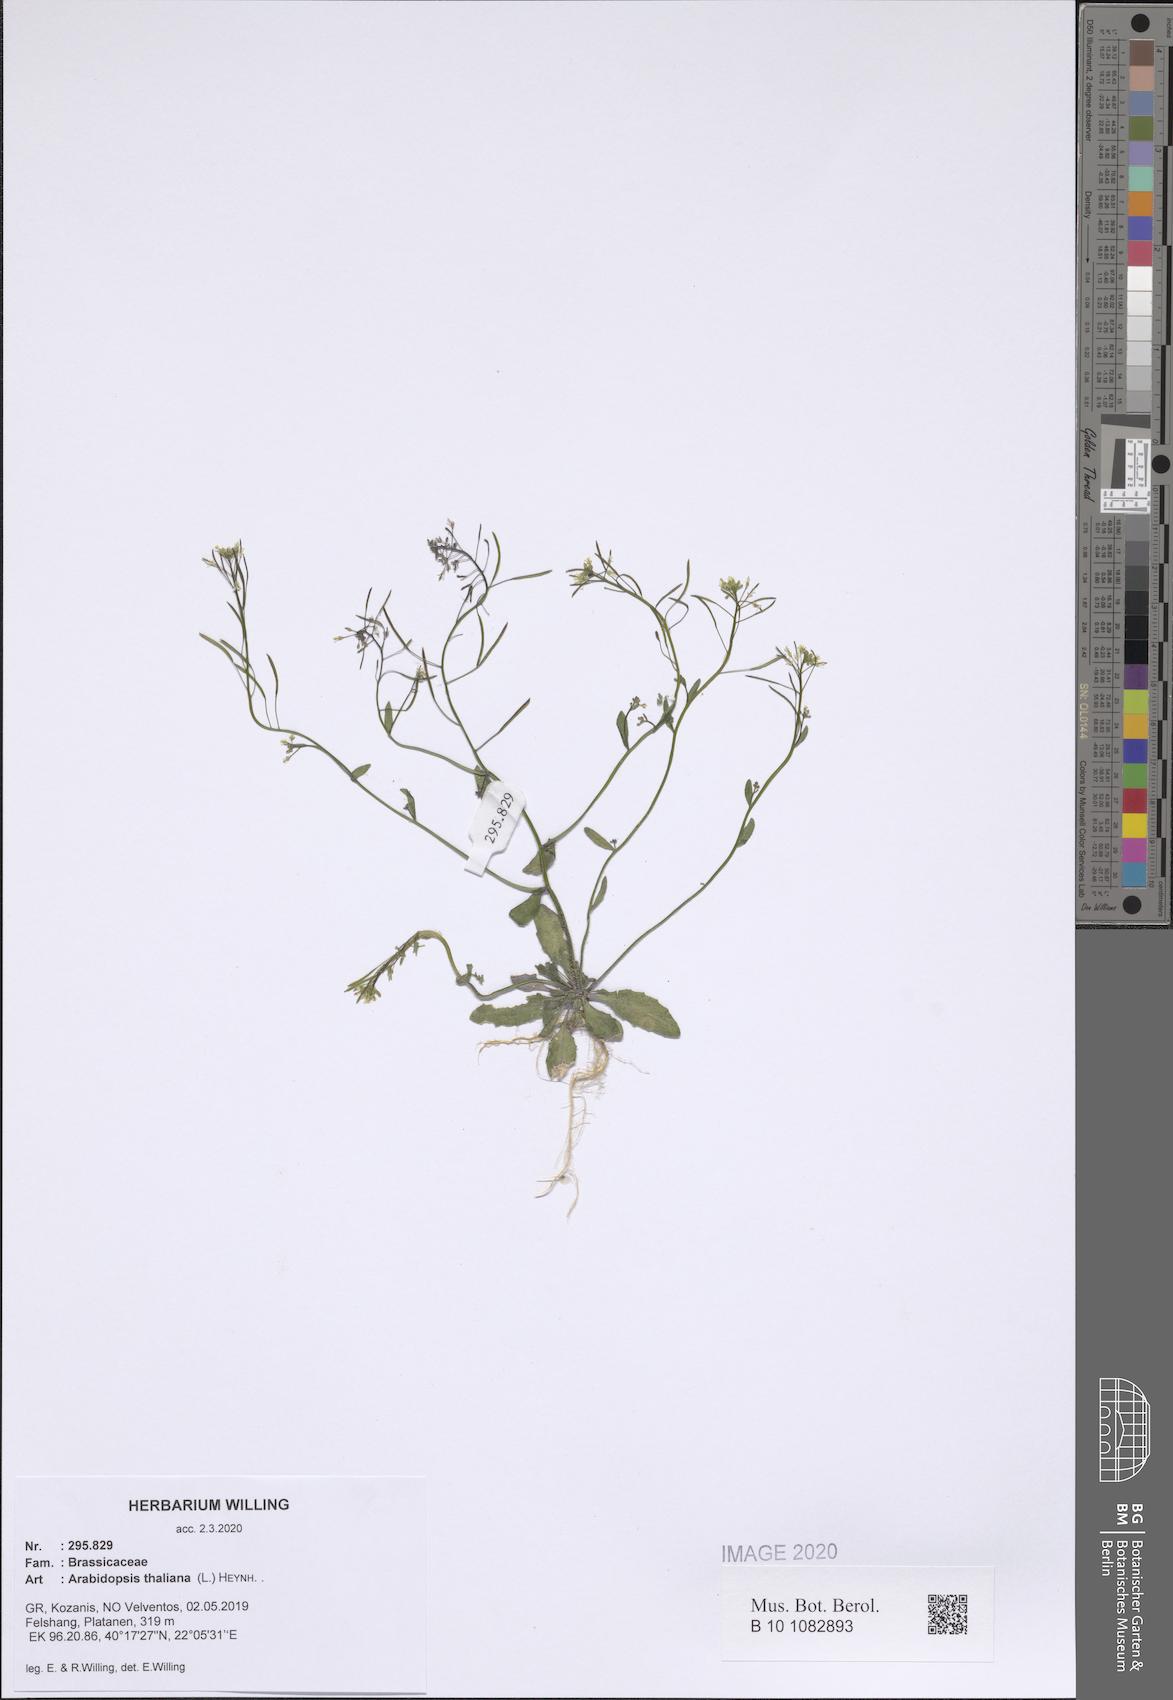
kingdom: Plantae
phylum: Tracheophyta
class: Magnoliopsida
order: Brassicales
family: Brassicaceae
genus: Arabidopsis
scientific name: Arabidopsis thaliana
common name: Thale cress
